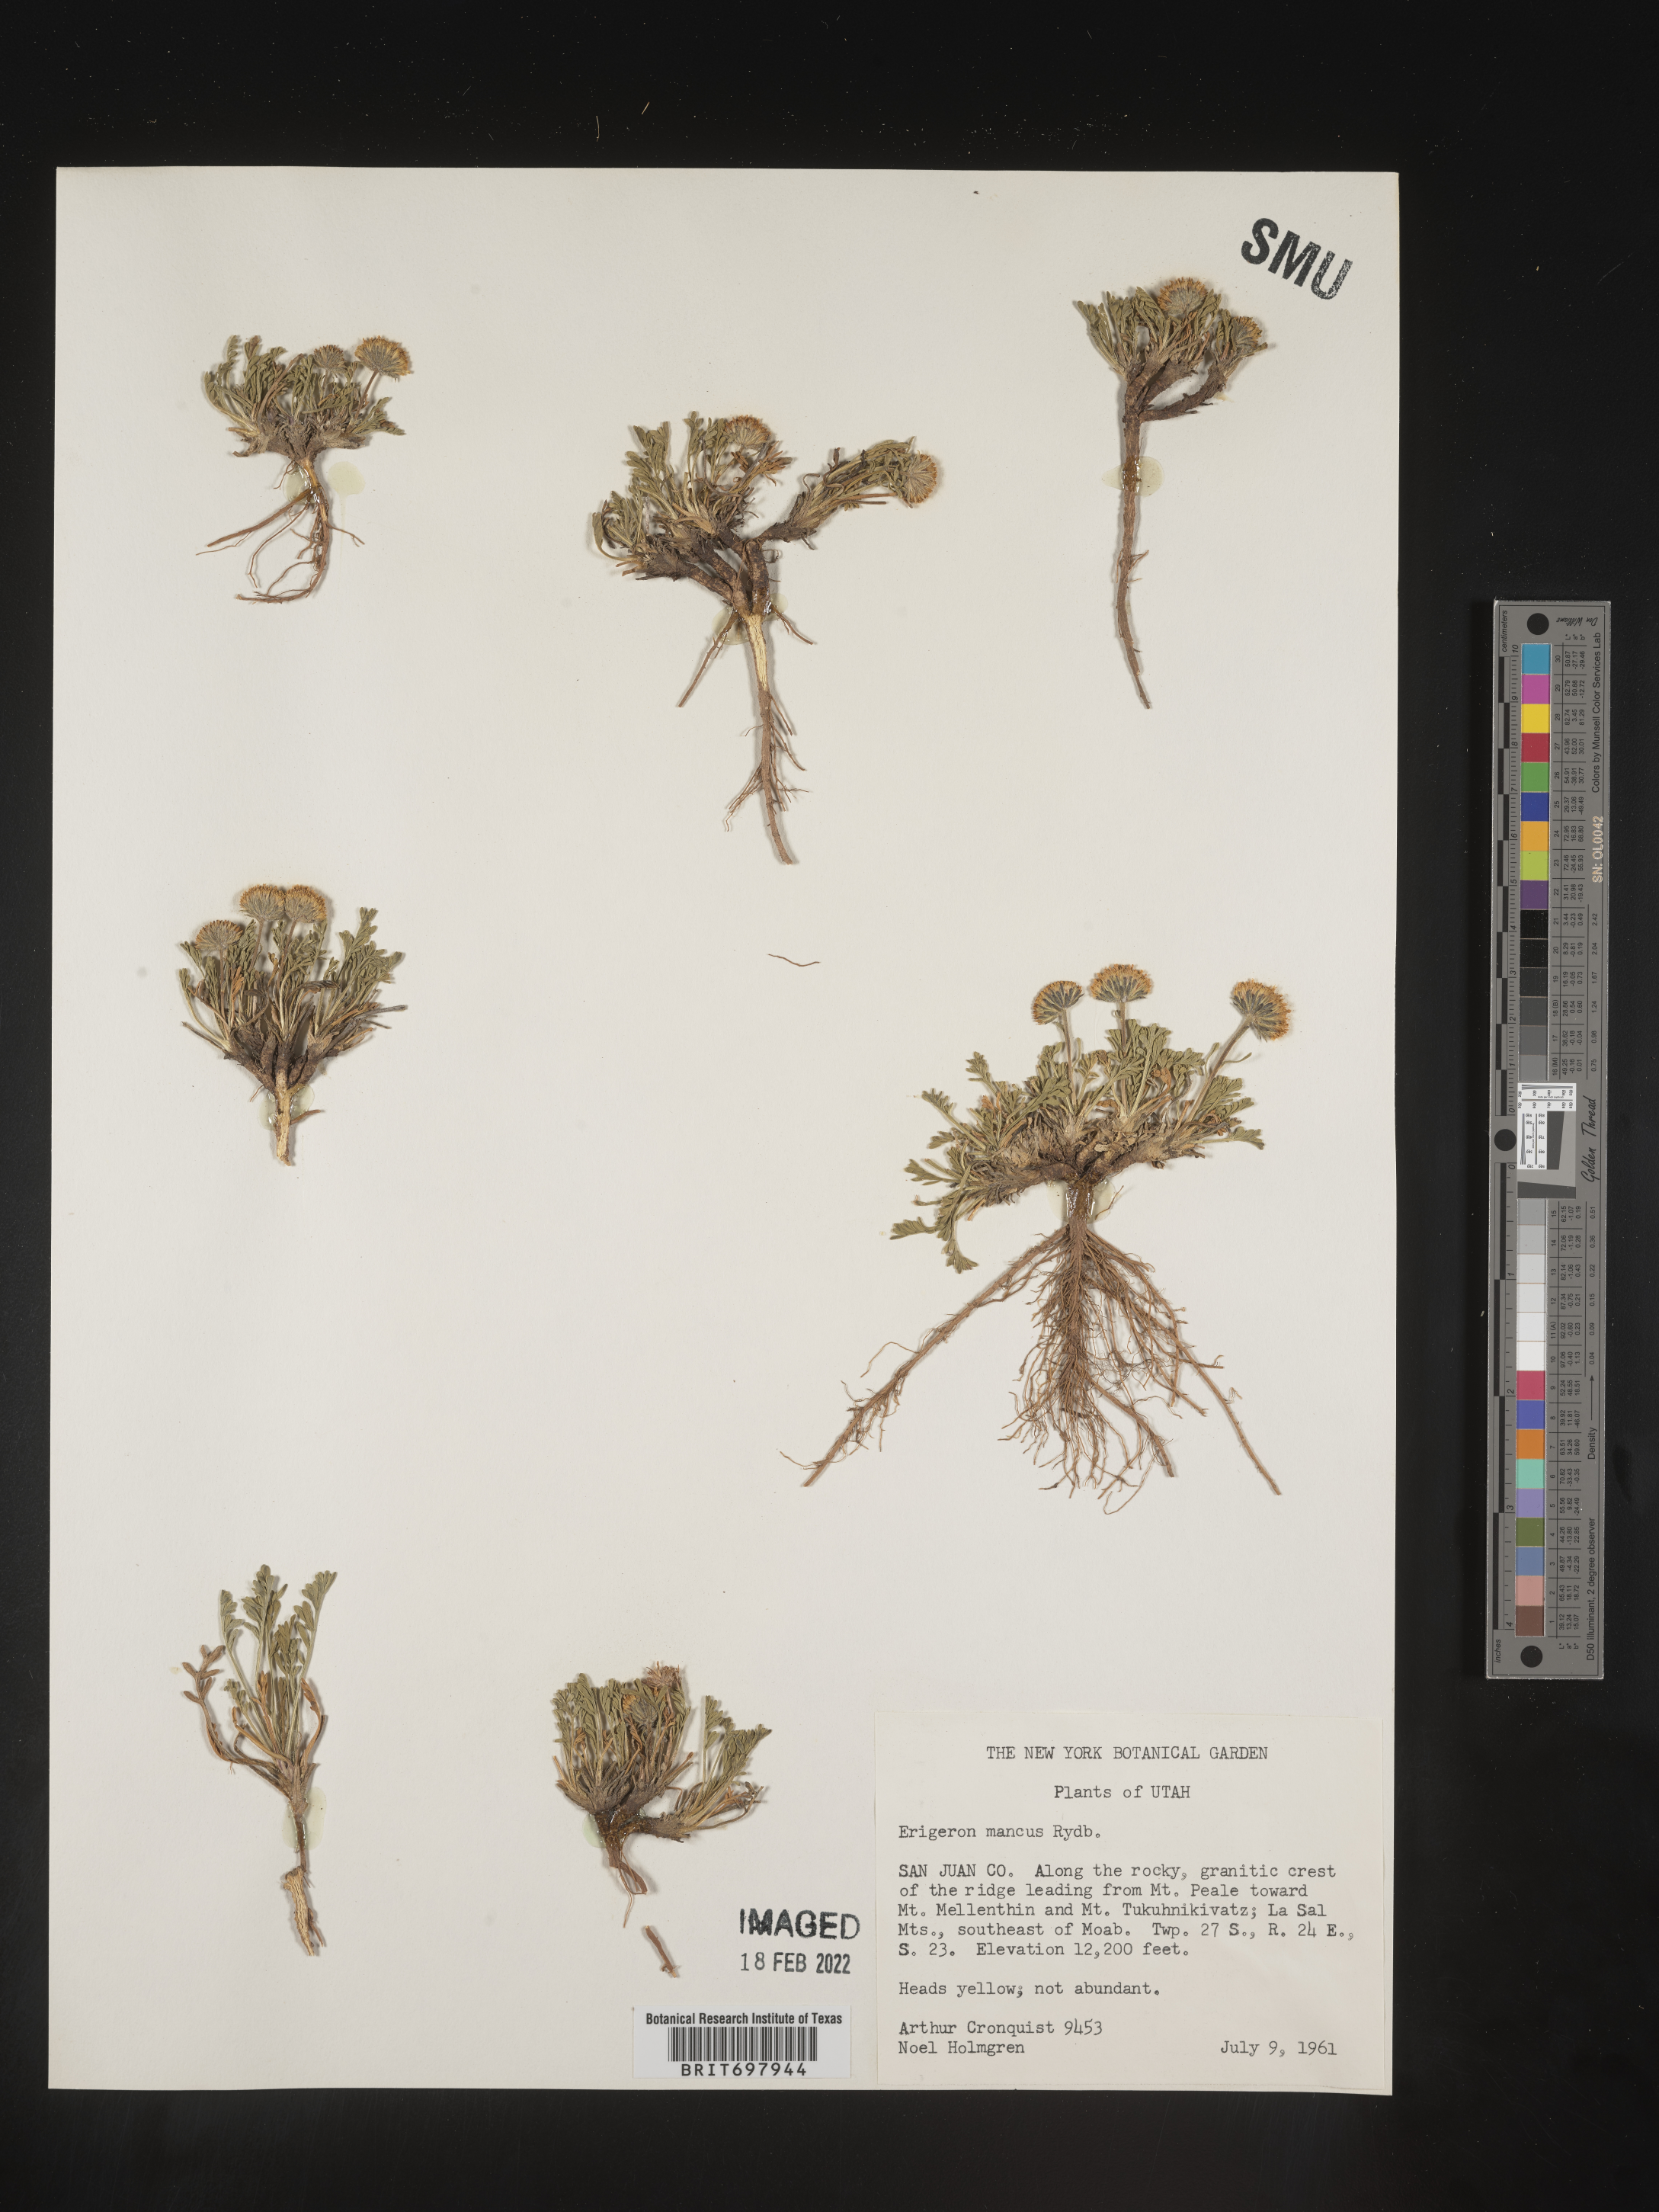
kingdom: Plantae
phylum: Tracheophyta
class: Magnoliopsida
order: Asterales
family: Asteraceae
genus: Erigeron
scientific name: Erigeron mancus
